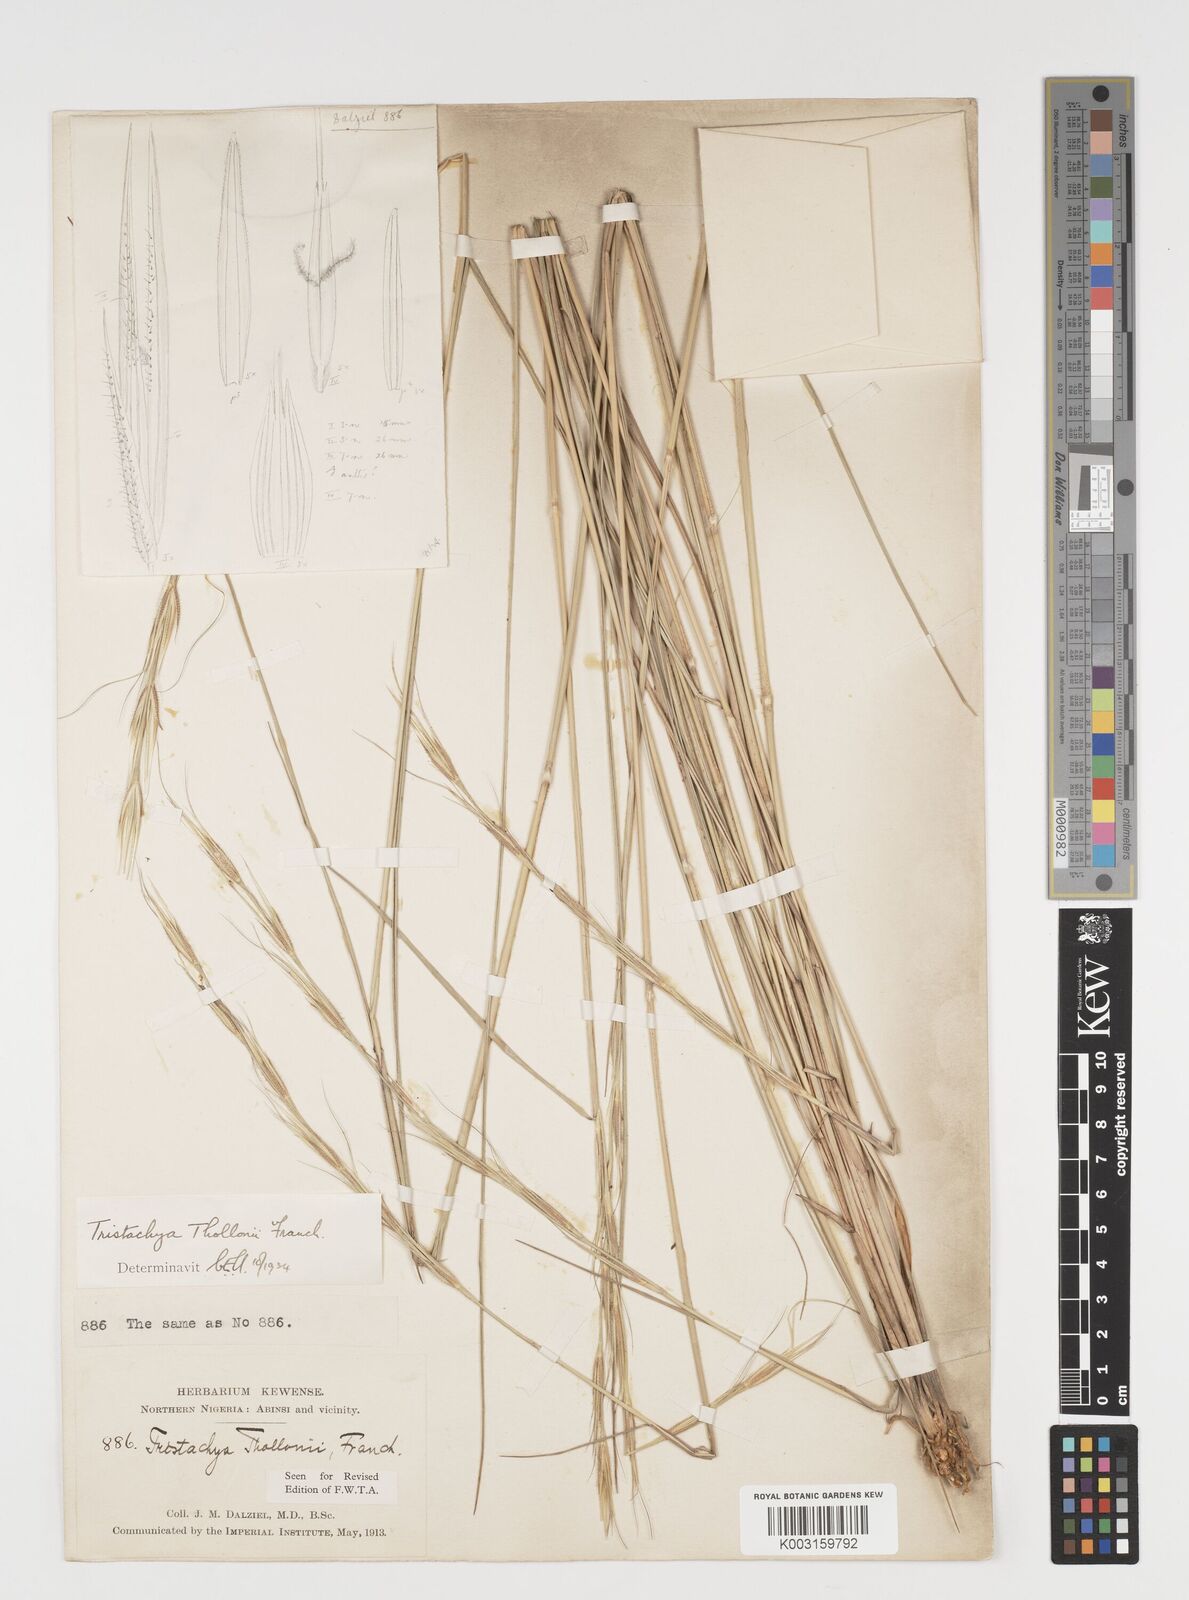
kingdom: Plantae
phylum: Tracheophyta
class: Liliopsida
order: Poales
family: Poaceae
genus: Tristachya
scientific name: Tristachya thollonii
